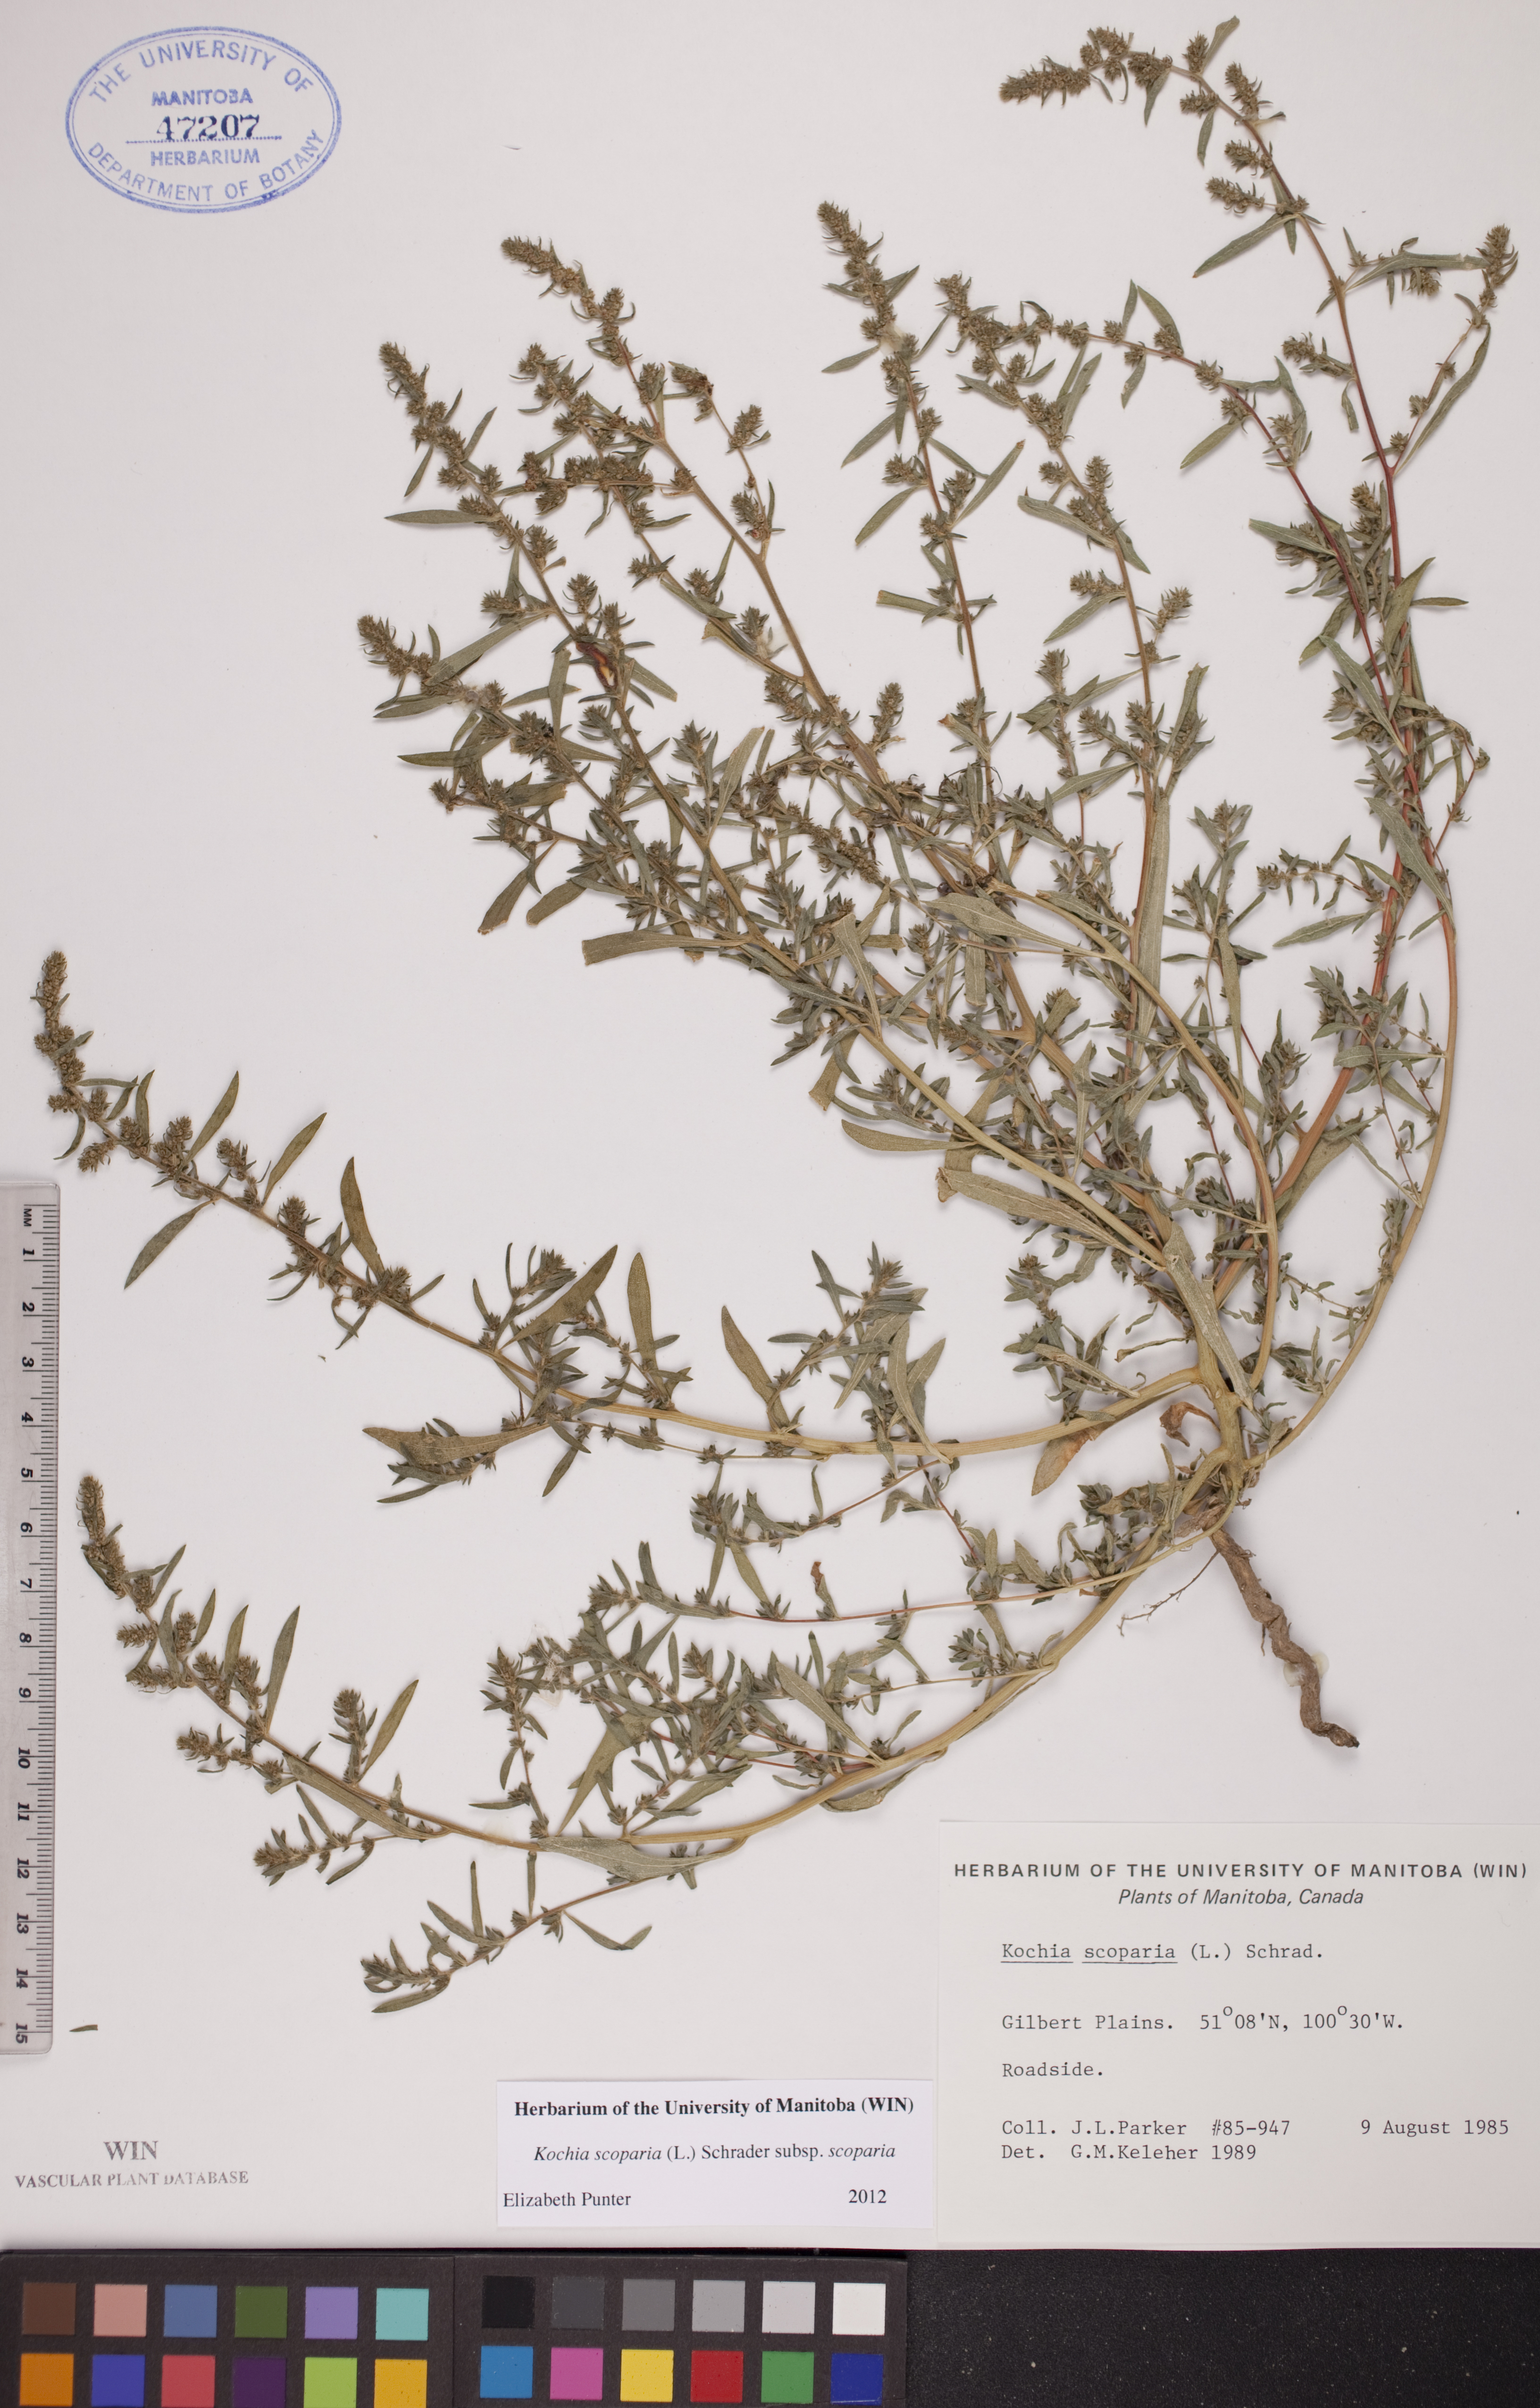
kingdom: Plantae
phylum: Tracheophyta
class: Magnoliopsida
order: Caryophyllales
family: Amaranthaceae
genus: Bassia
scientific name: Bassia scoparia
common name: Belvedere
